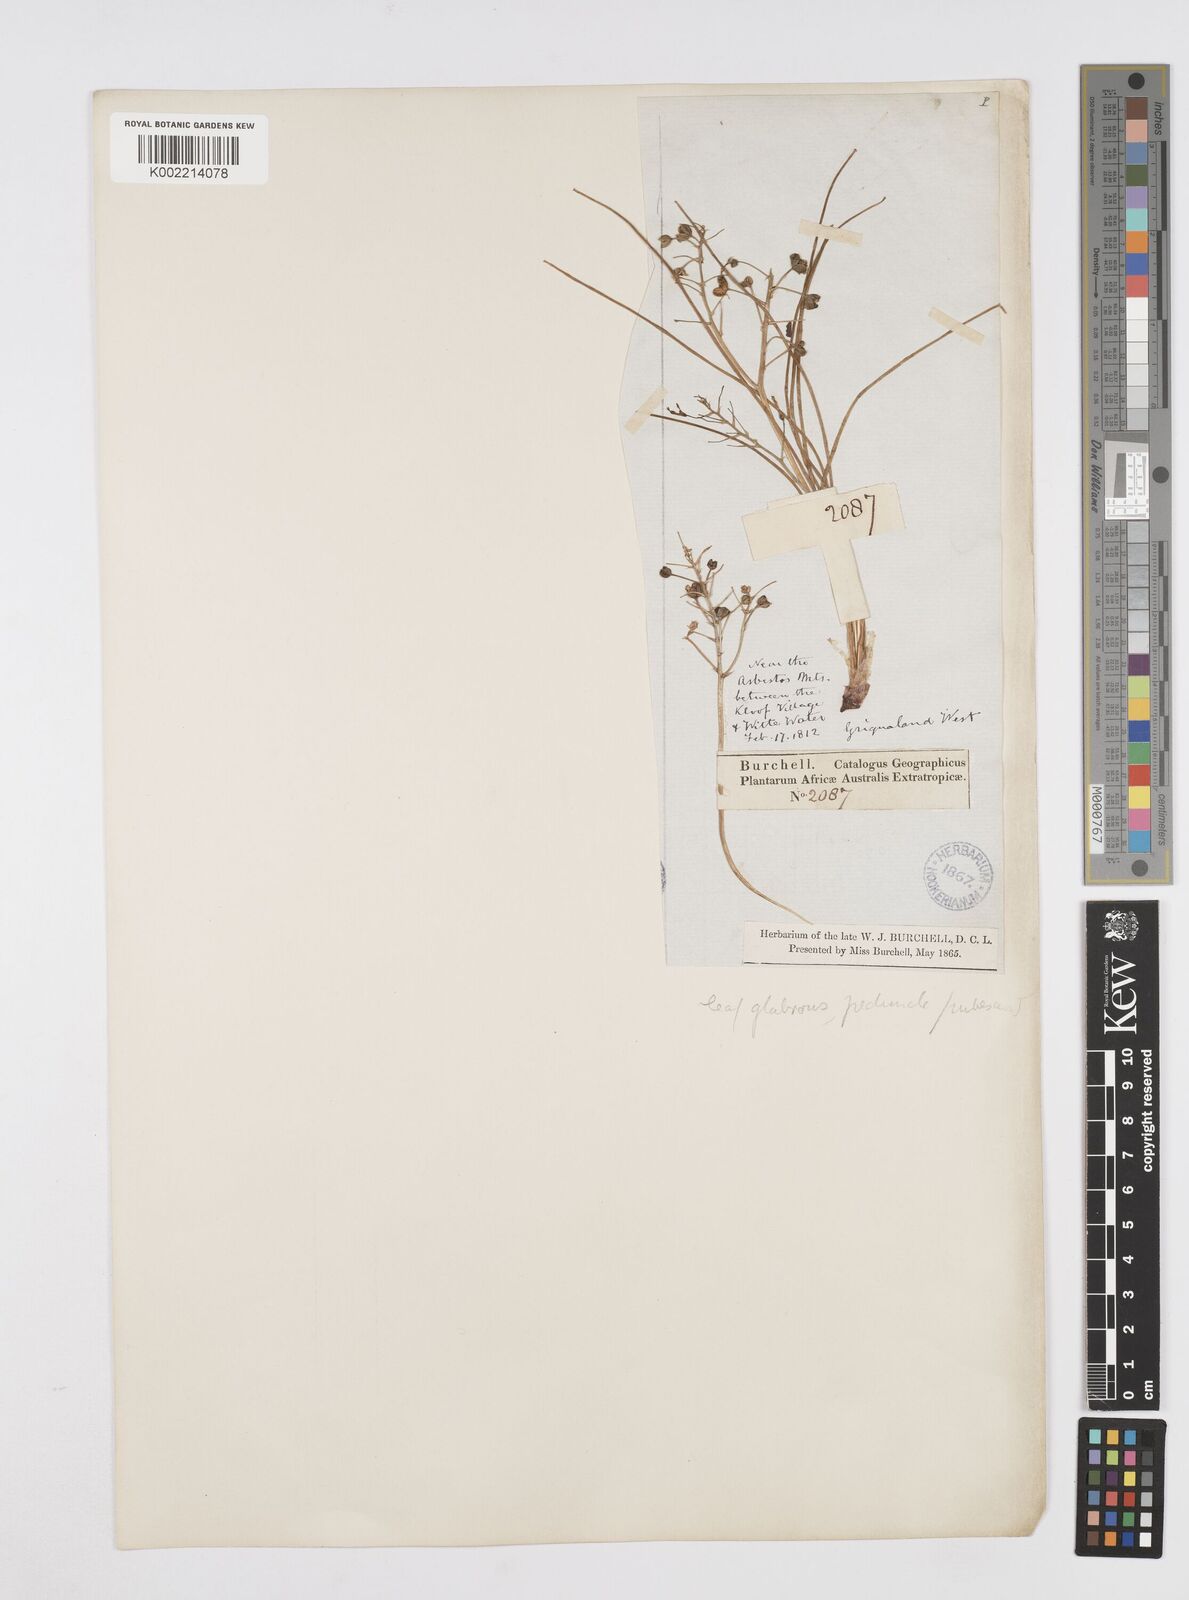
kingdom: Plantae
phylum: Tracheophyta
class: Liliopsida
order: Asparagales
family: Asphodelaceae
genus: Trachyandra
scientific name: Trachyandra
